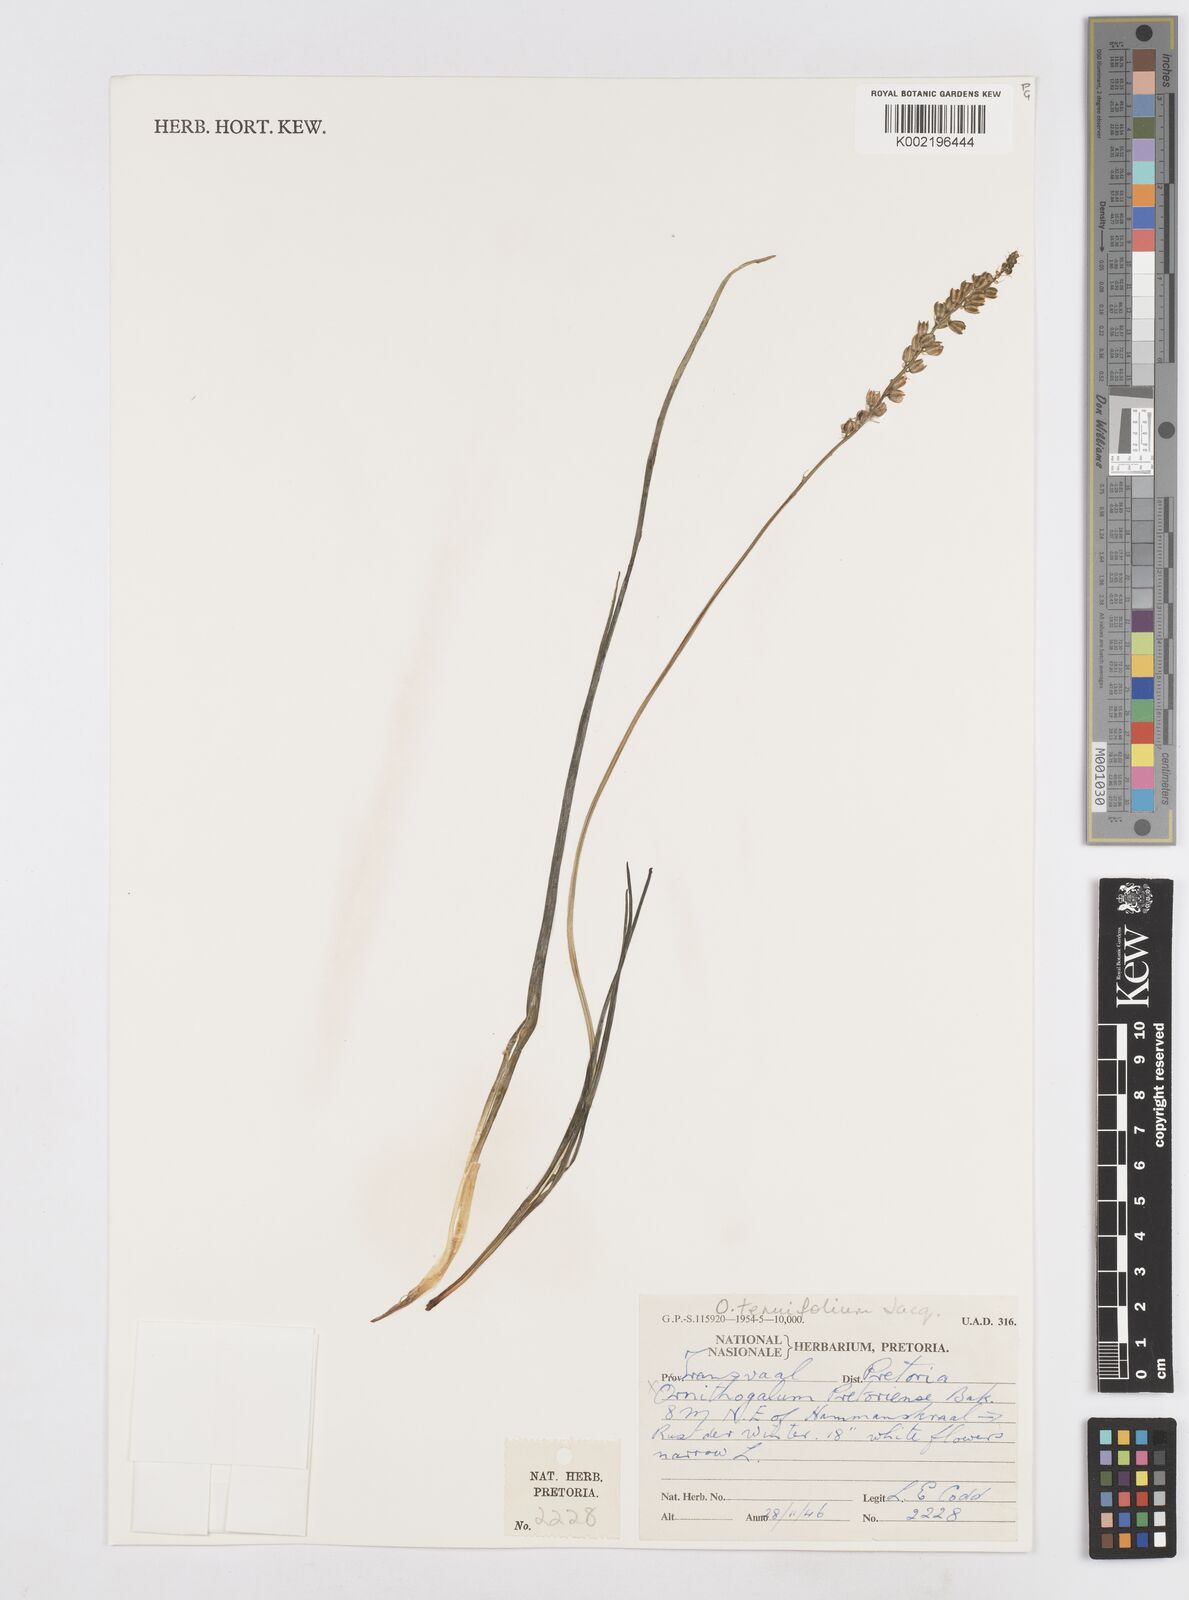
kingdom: Plantae
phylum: Tracheophyta
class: Liliopsida
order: Asparagales
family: Asparagaceae
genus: Albuca
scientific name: Albuca virens
